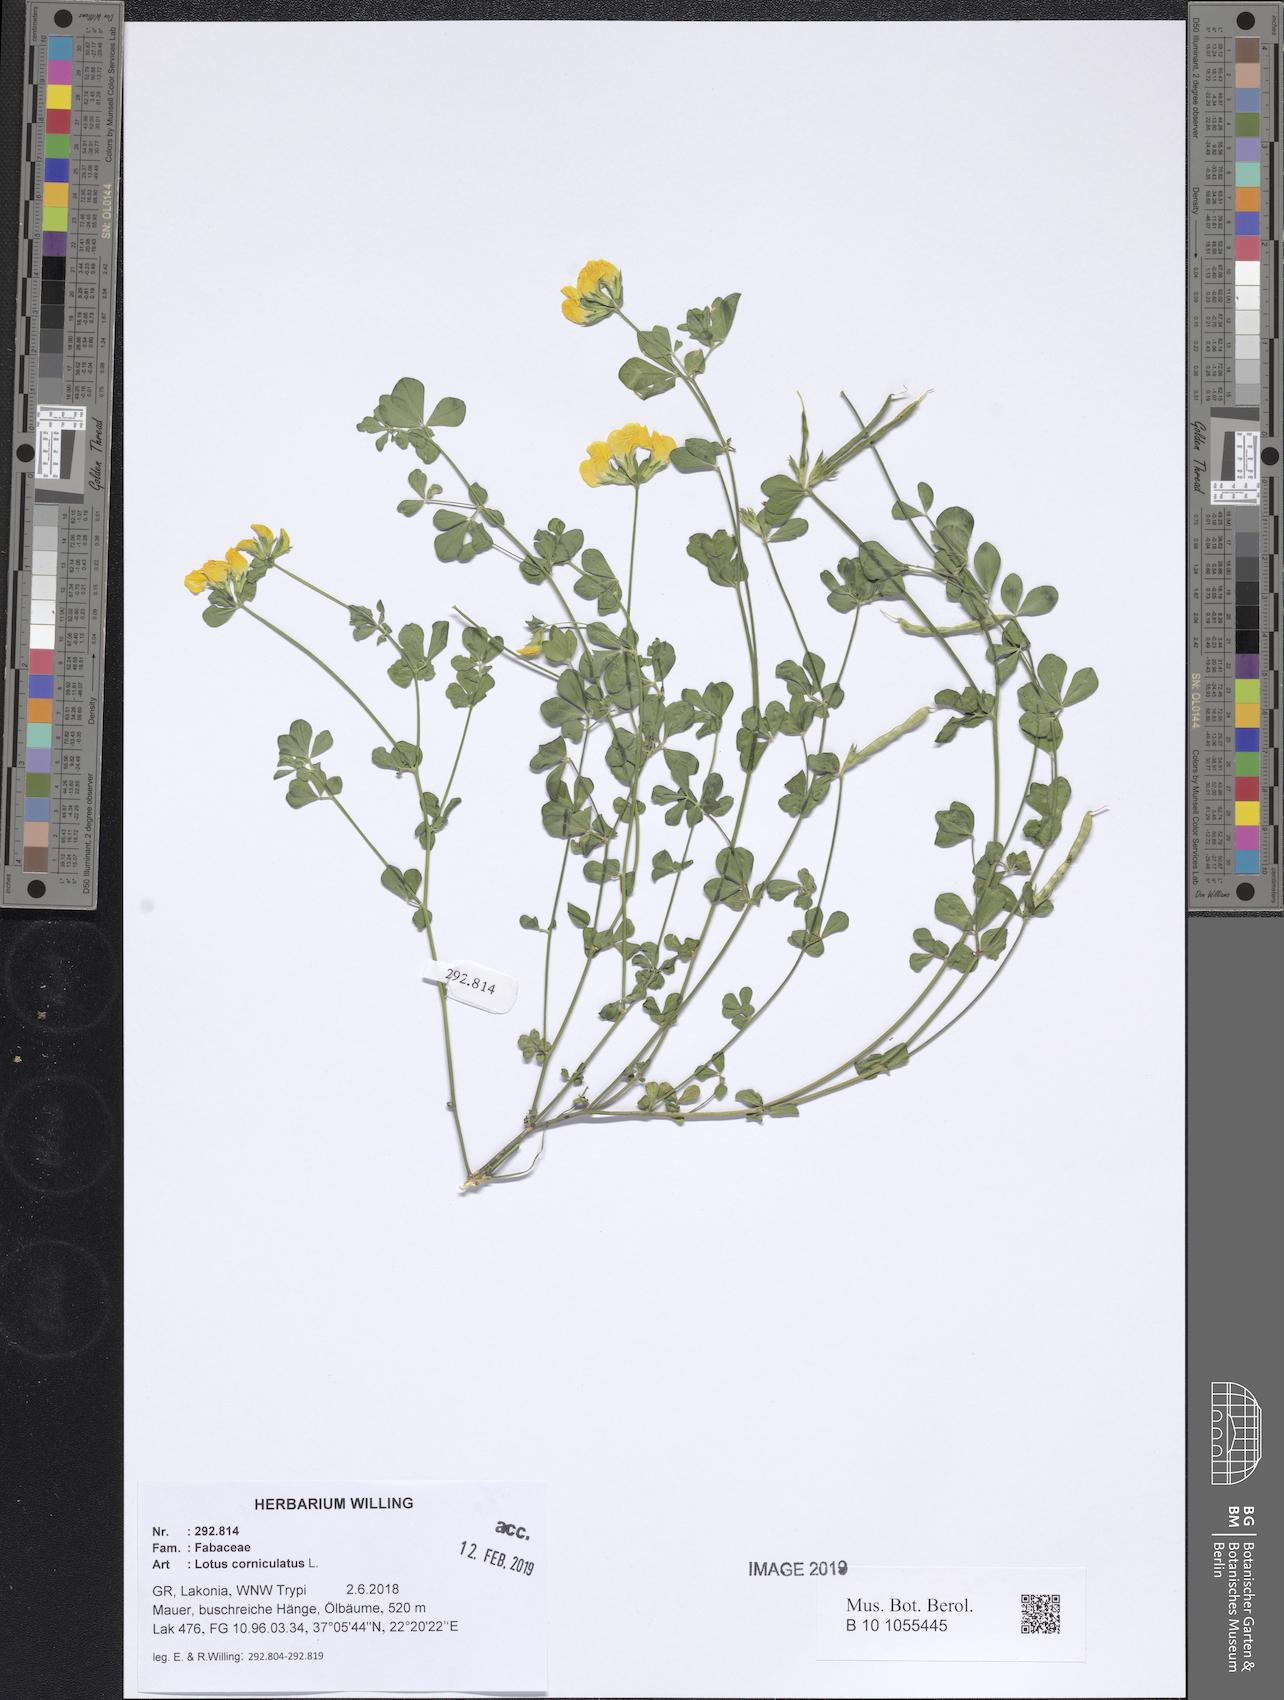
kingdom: Plantae
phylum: Tracheophyta
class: Magnoliopsida
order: Fabales
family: Fabaceae
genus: Lotus
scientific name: Lotus corniculatus
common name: Common bird's-foot-trefoil
